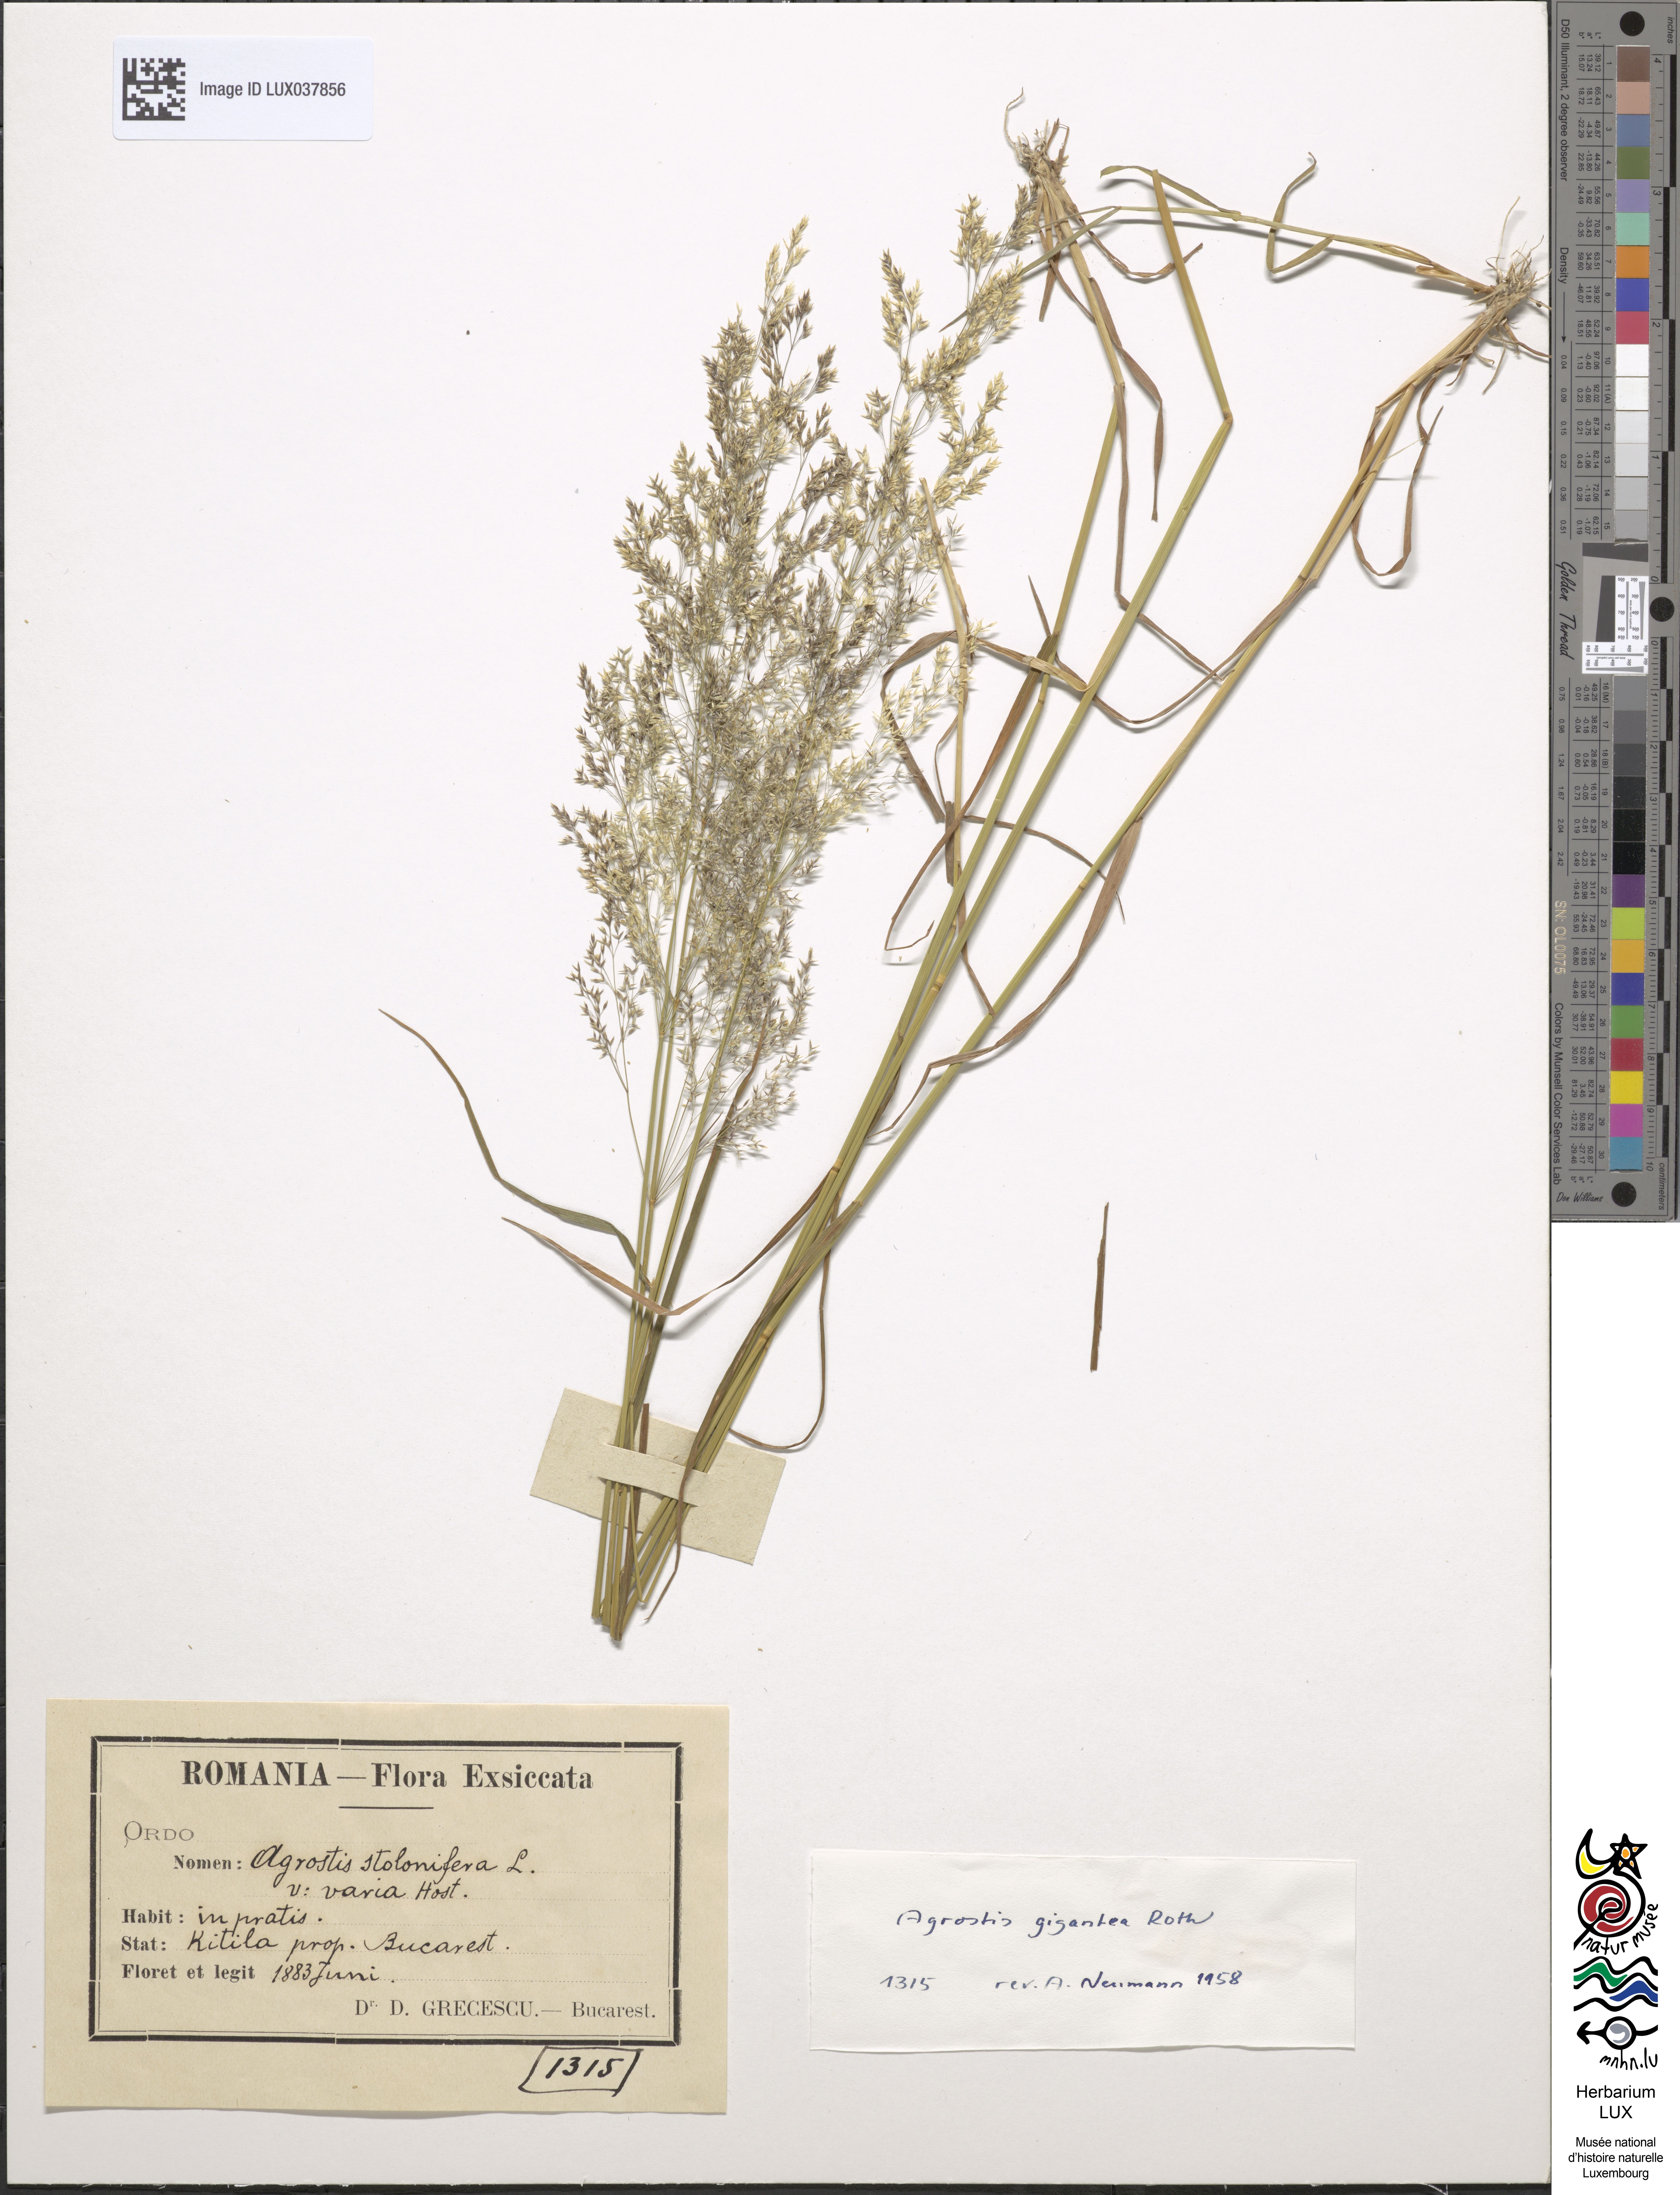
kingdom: Plantae
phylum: Tracheophyta
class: Liliopsida
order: Poales
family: Poaceae
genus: Agrostis
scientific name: Agrostis stolonifera
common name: Creeping bentgrass
